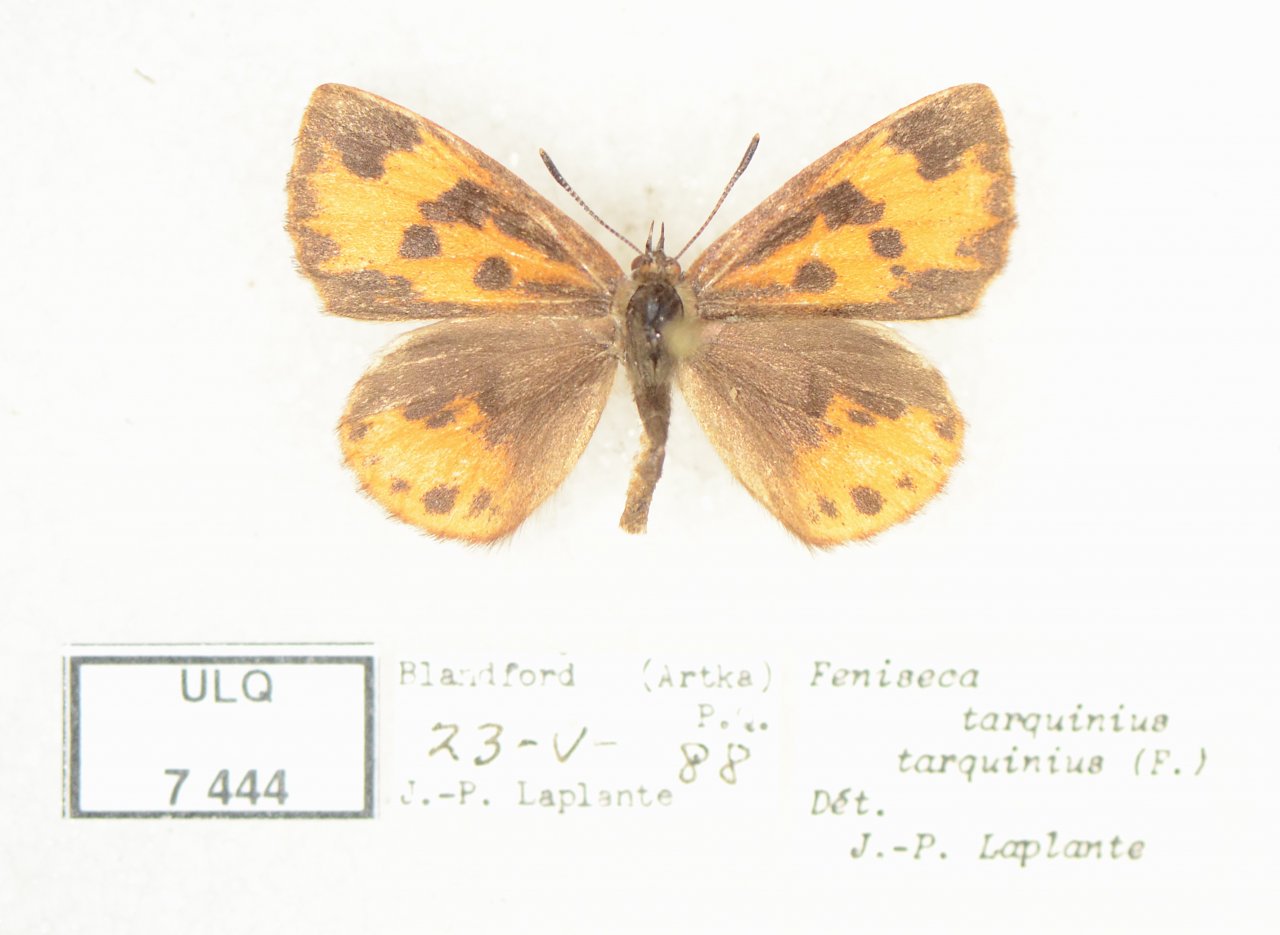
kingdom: Animalia
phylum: Arthropoda
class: Insecta
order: Lepidoptera
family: Lycaenidae
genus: Feniseca
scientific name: Feniseca tarquinius
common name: Harvester
